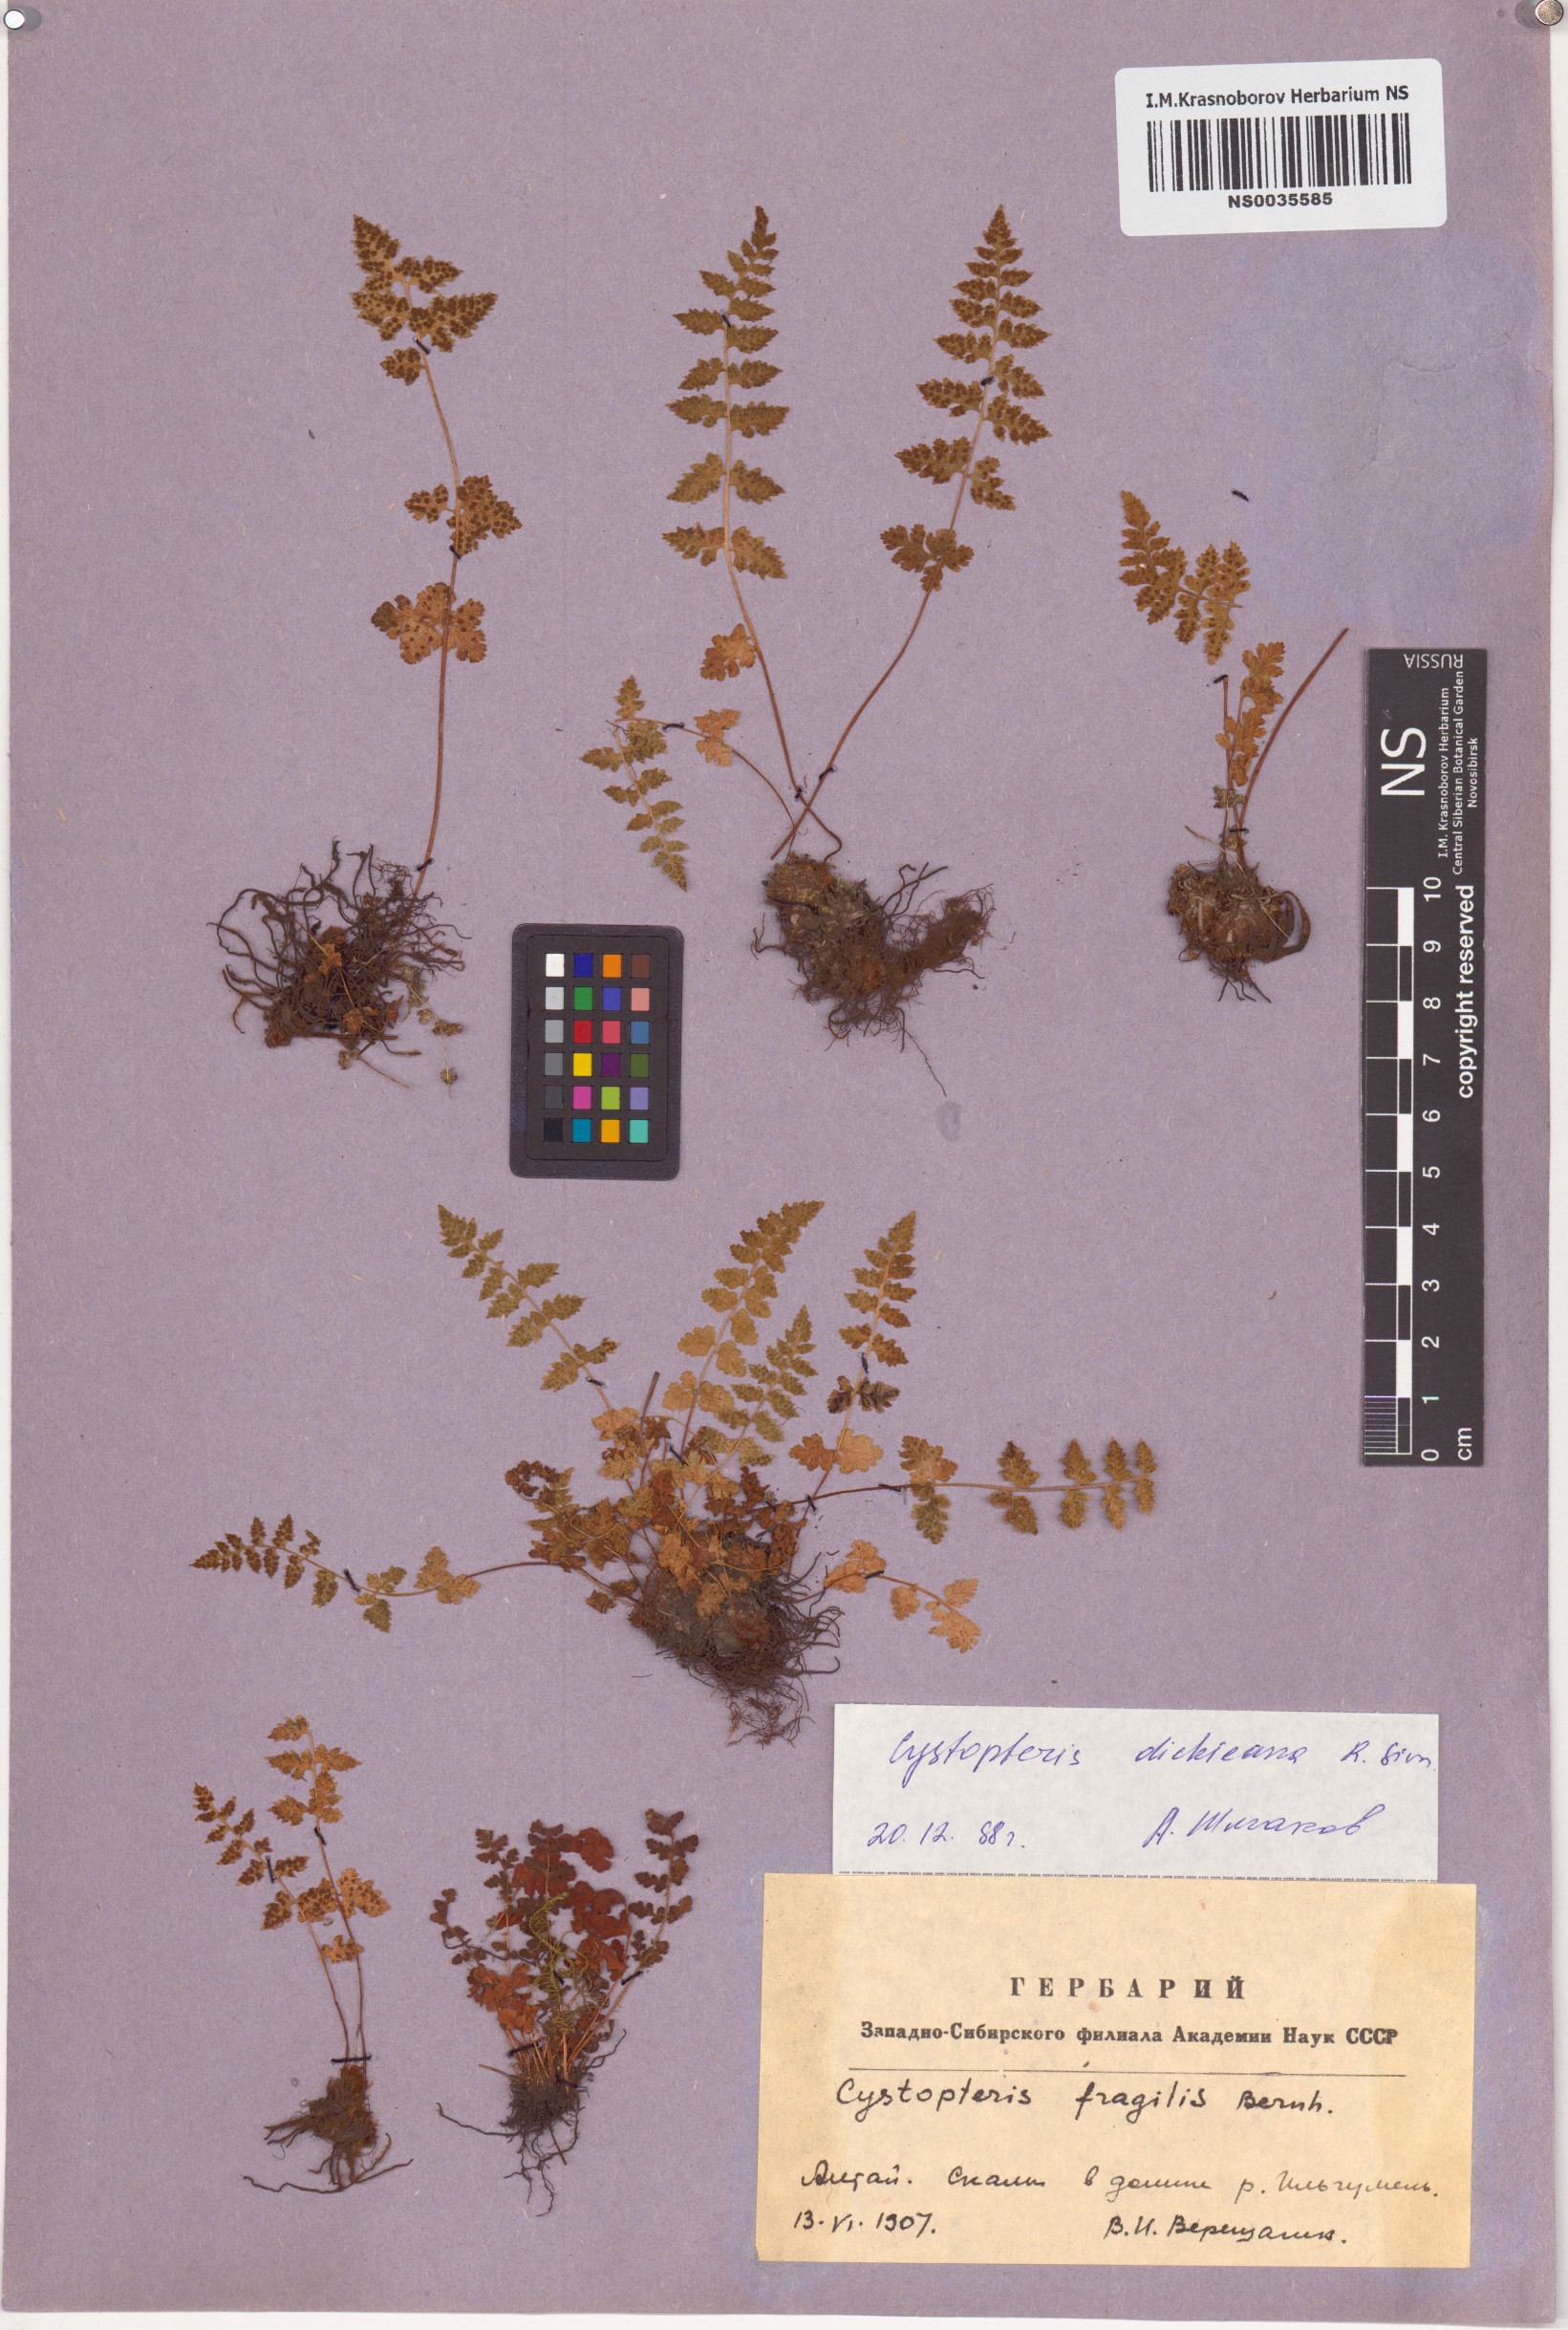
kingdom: Plantae
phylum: Tracheophyta
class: Polypodiopsida
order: Polypodiales
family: Cystopteridaceae
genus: Cystopteris
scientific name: Cystopteris dickieana
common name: Dickie's bladder-fern
